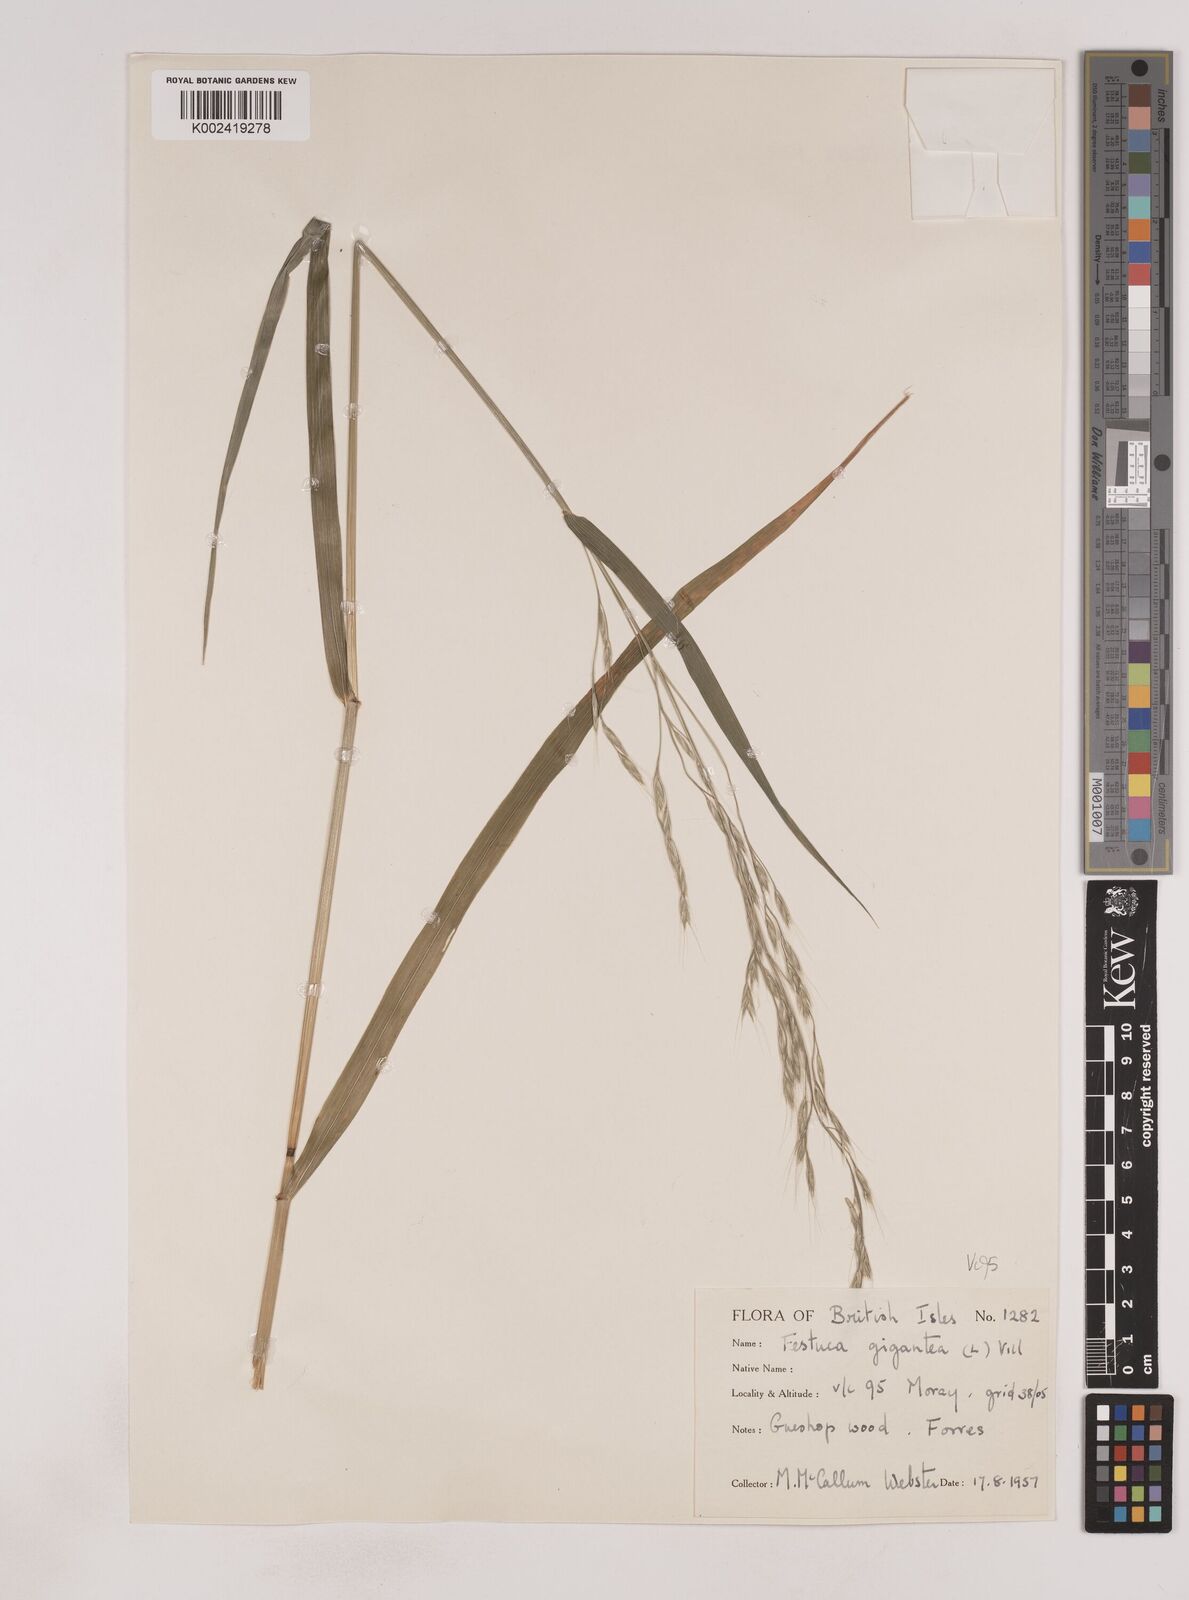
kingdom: Plantae
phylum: Tracheophyta
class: Liliopsida
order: Poales
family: Poaceae
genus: Lolium
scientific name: Lolium giganteum
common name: Giant fescue
